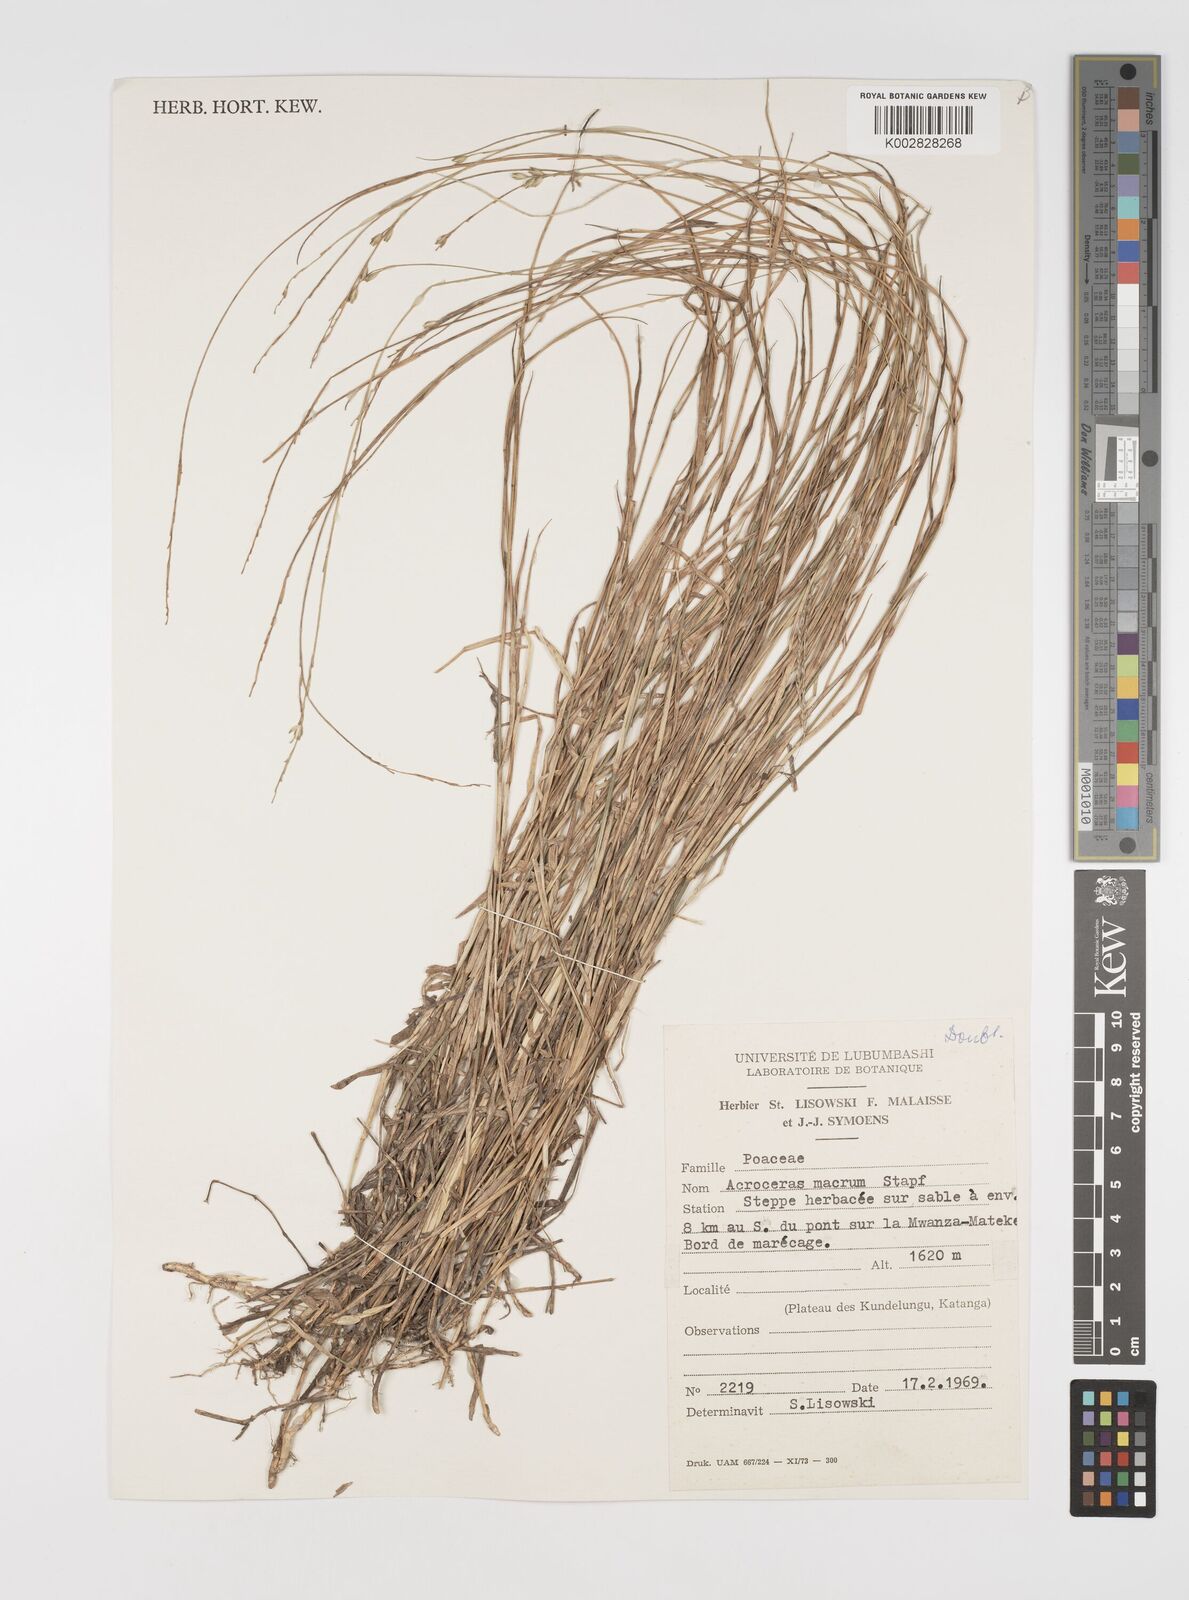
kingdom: Plantae
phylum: Tracheophyta
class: Liliopsida
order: Poales
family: Poaceae
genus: Acroceras
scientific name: Acroceras macrum
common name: Nyl grass
